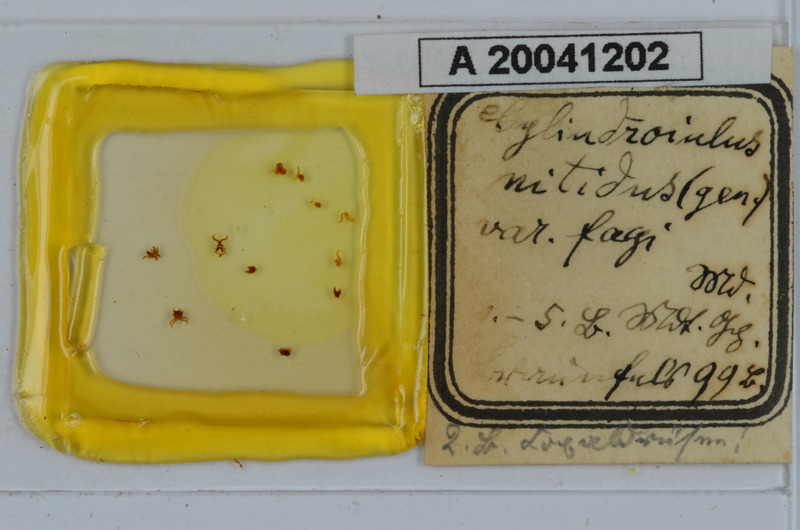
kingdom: Animalia
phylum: Arthropoda
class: Diplopoda
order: Julida
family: Julidae
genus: Allajulus
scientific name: Allajulus nitidus
